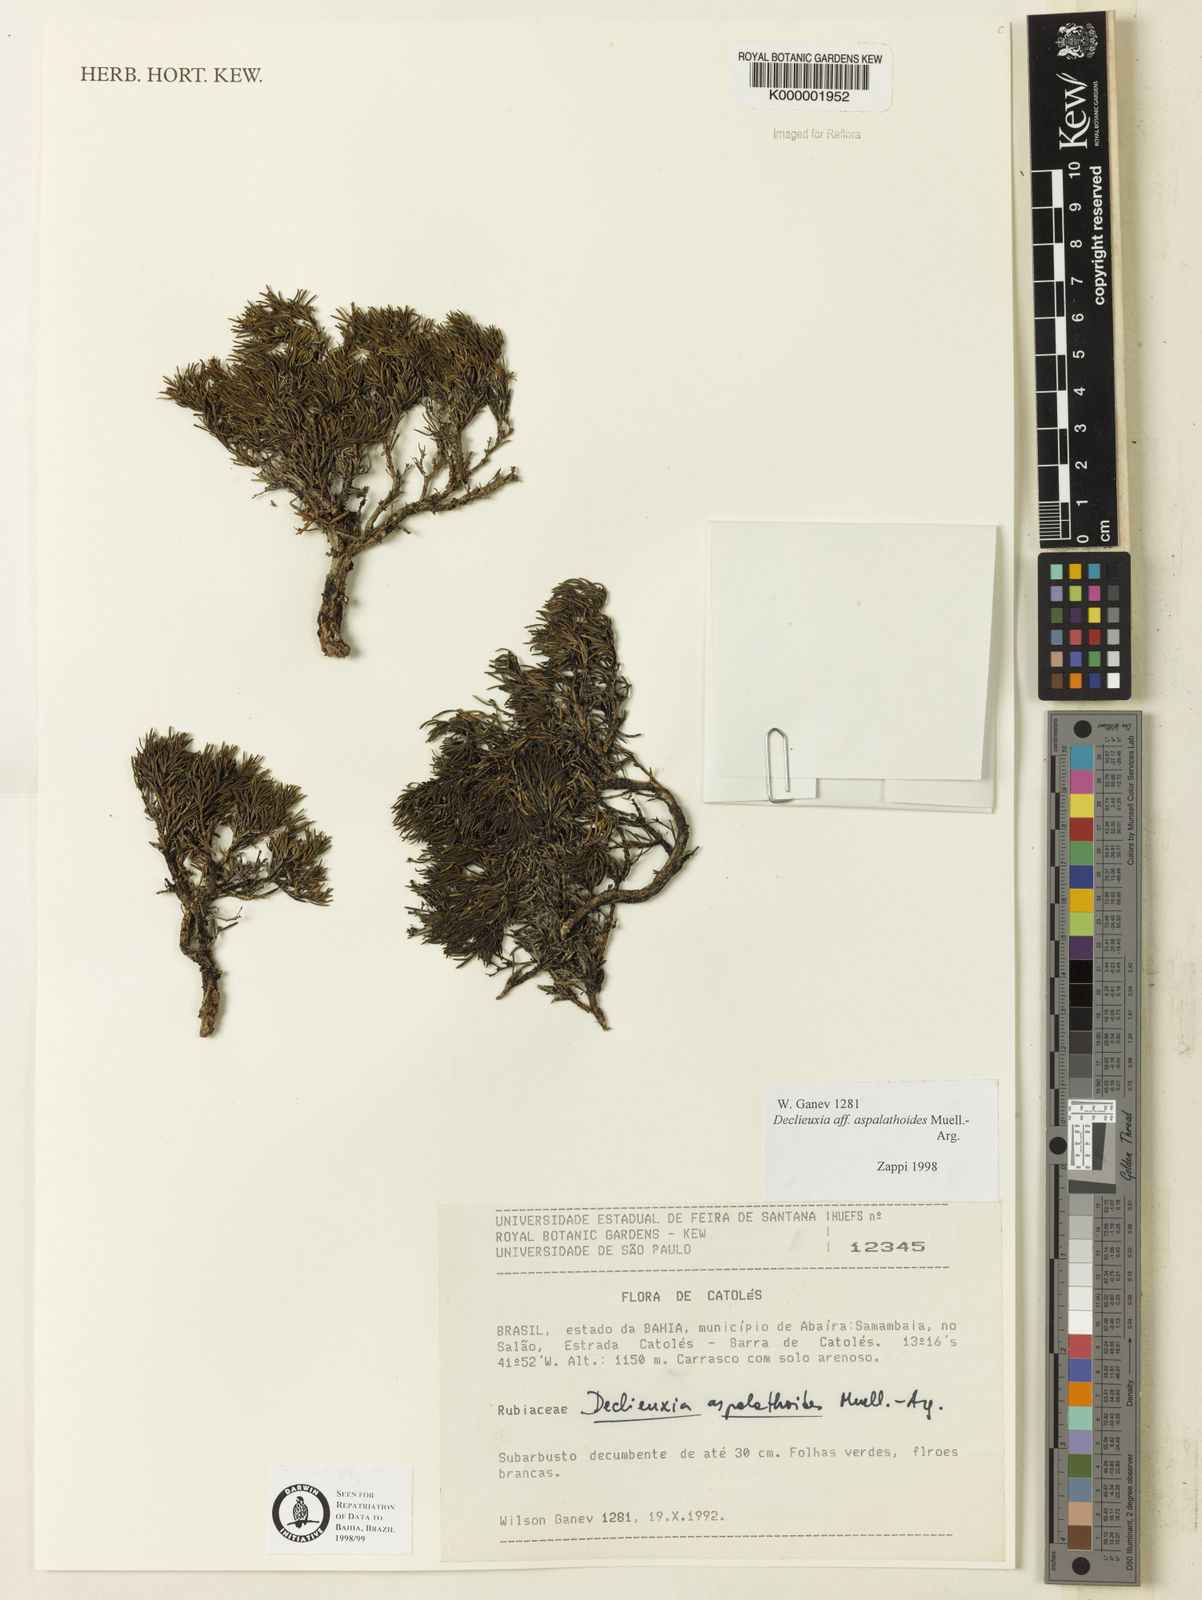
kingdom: Plantae
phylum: Tracheophyta
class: Magnoliopsida
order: Gentianales
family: Rubiaceae
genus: Declieuxia
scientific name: Declieuxia aspalathoides
